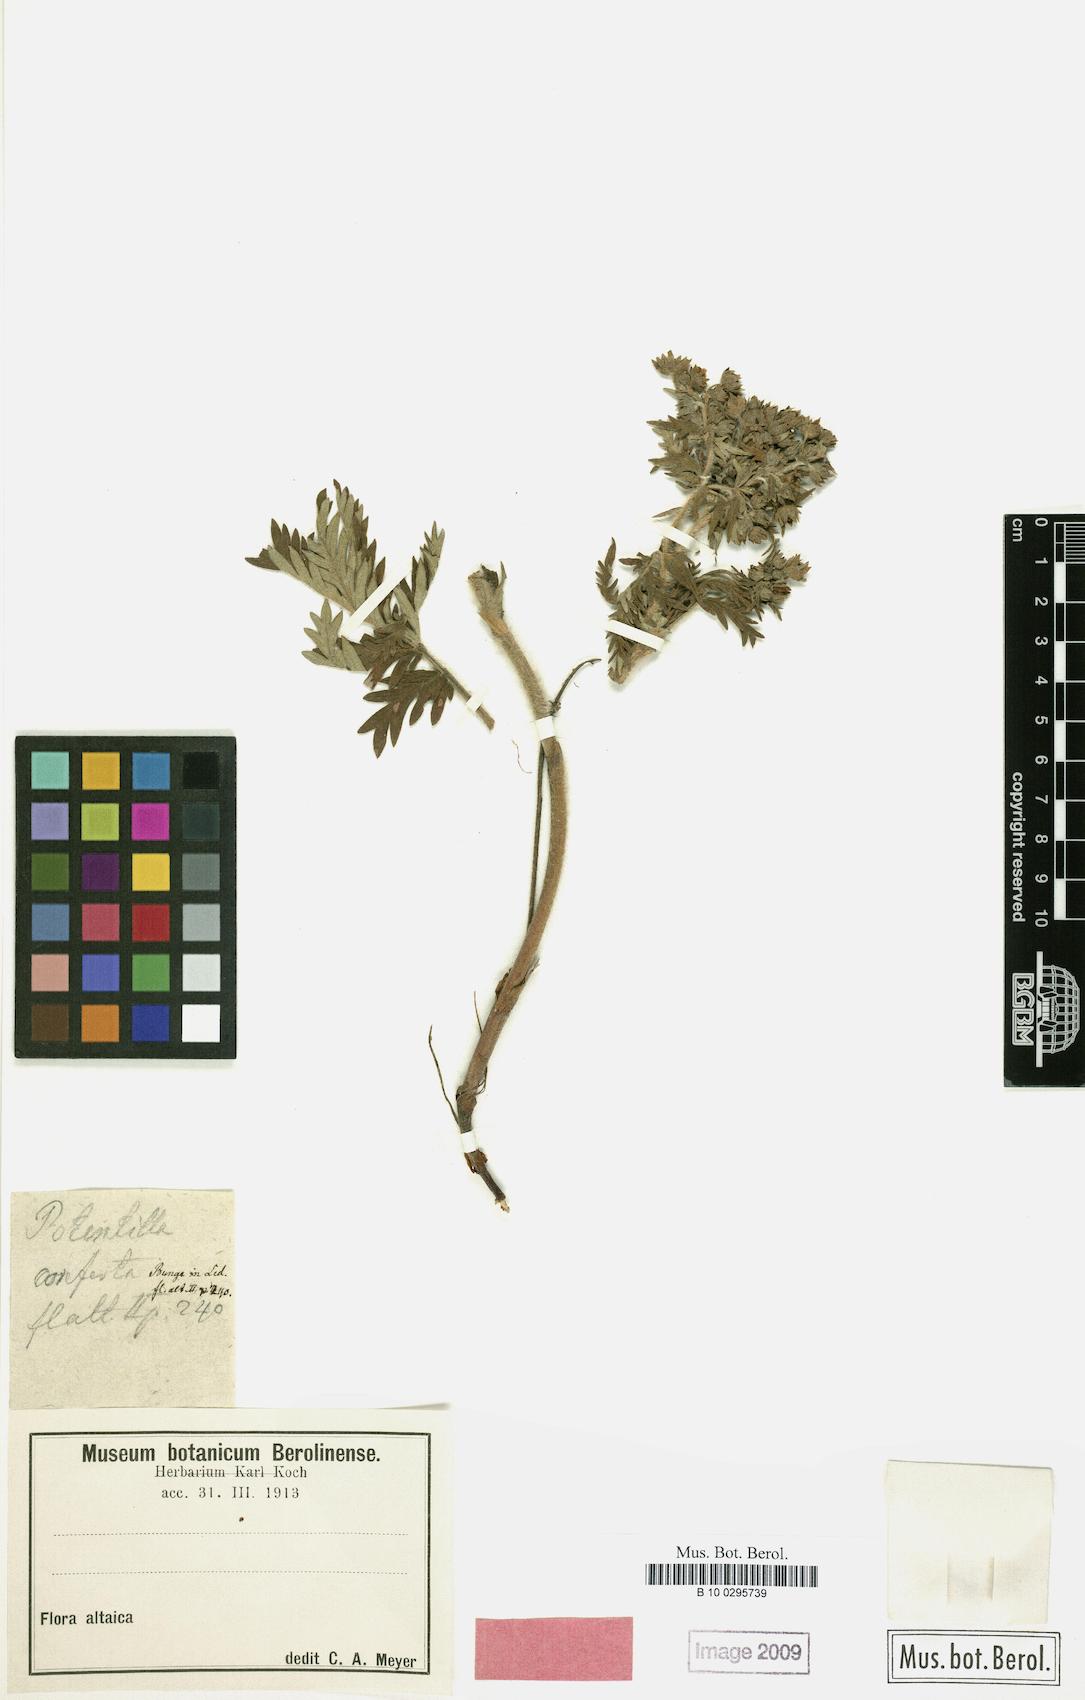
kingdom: Plantae
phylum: Tracheophyta
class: Magnoliopsida
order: Rosales
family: Rosaceae
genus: Potentilla
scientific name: Potentilla conferta
